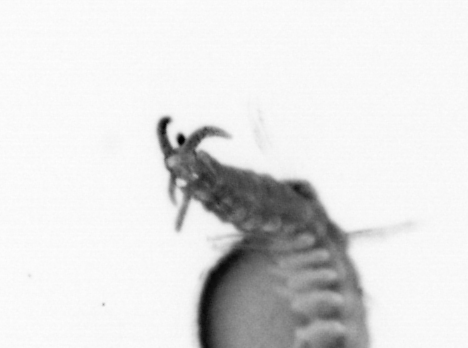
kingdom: Animalia
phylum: Annelida
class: Polychaeta
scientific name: Polychaeta
